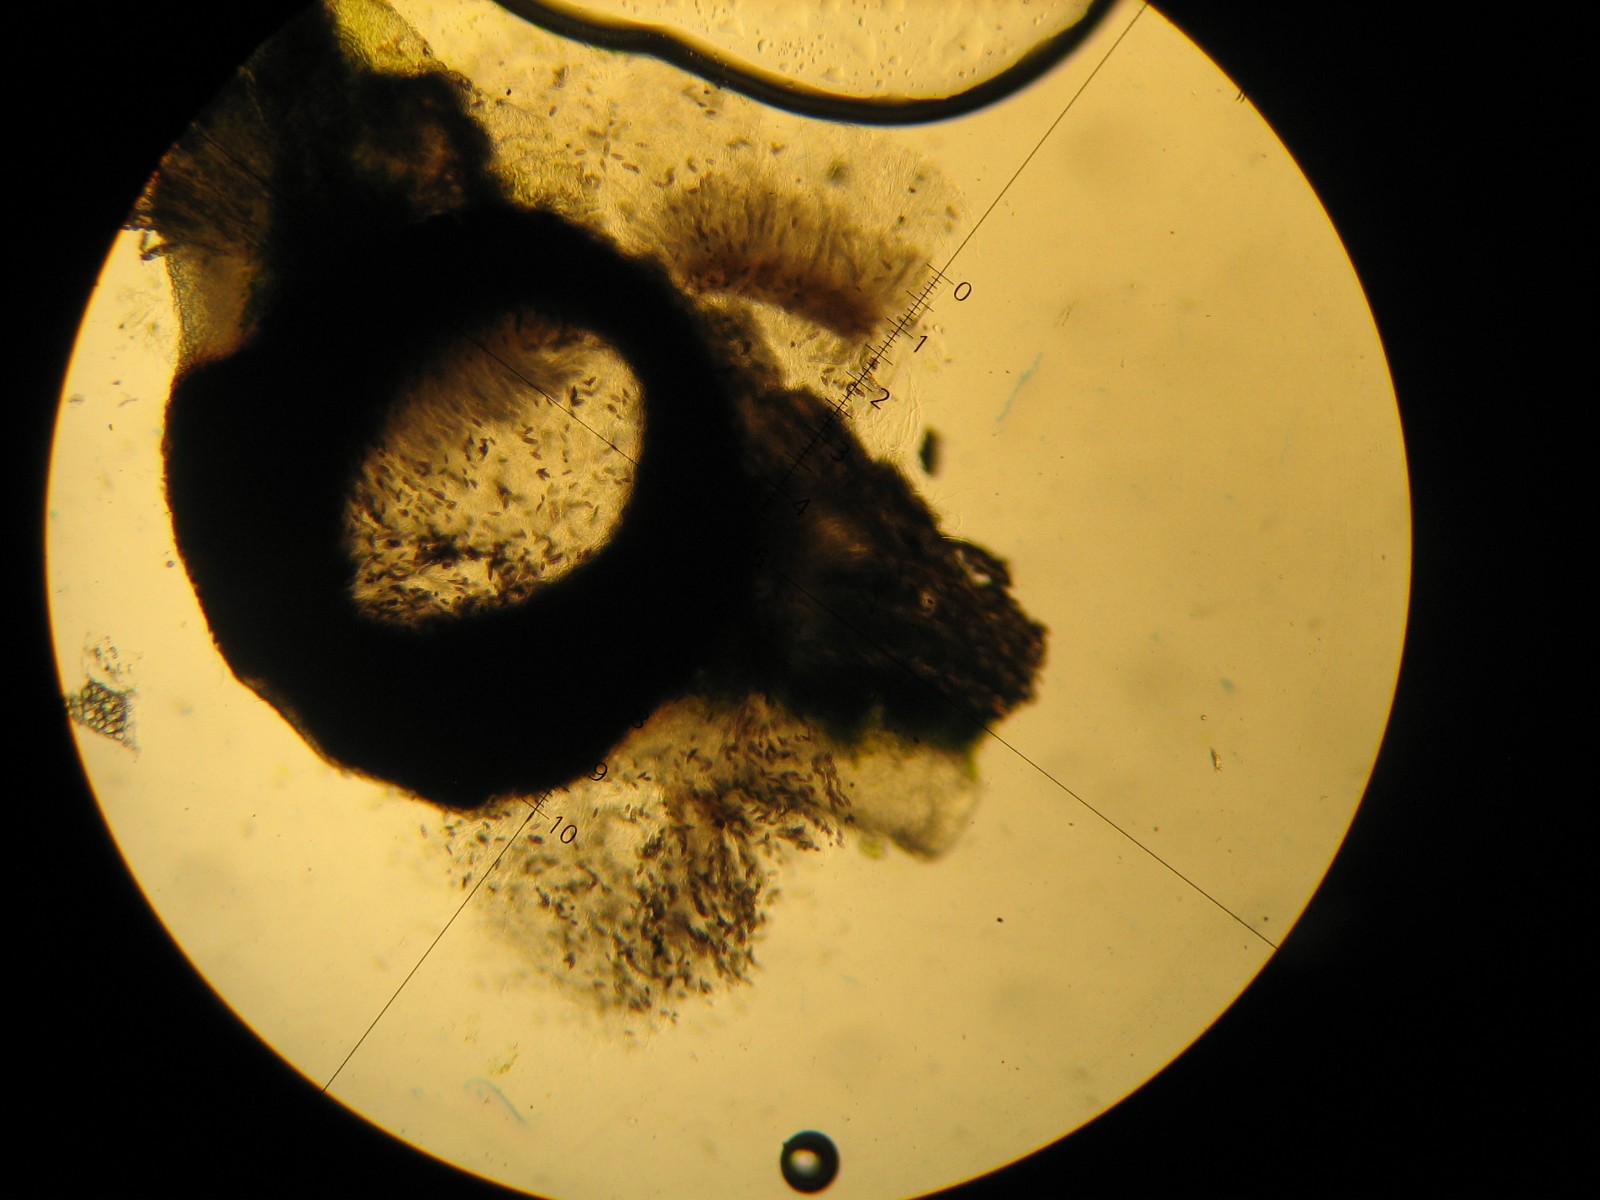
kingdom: Fungi
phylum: Ascomycota
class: Eurotiomycetes
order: Pyrenulales
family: Pyrenulaceae
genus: Pyrenula
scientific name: Pyrenula nitida
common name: glinsende kernelav
